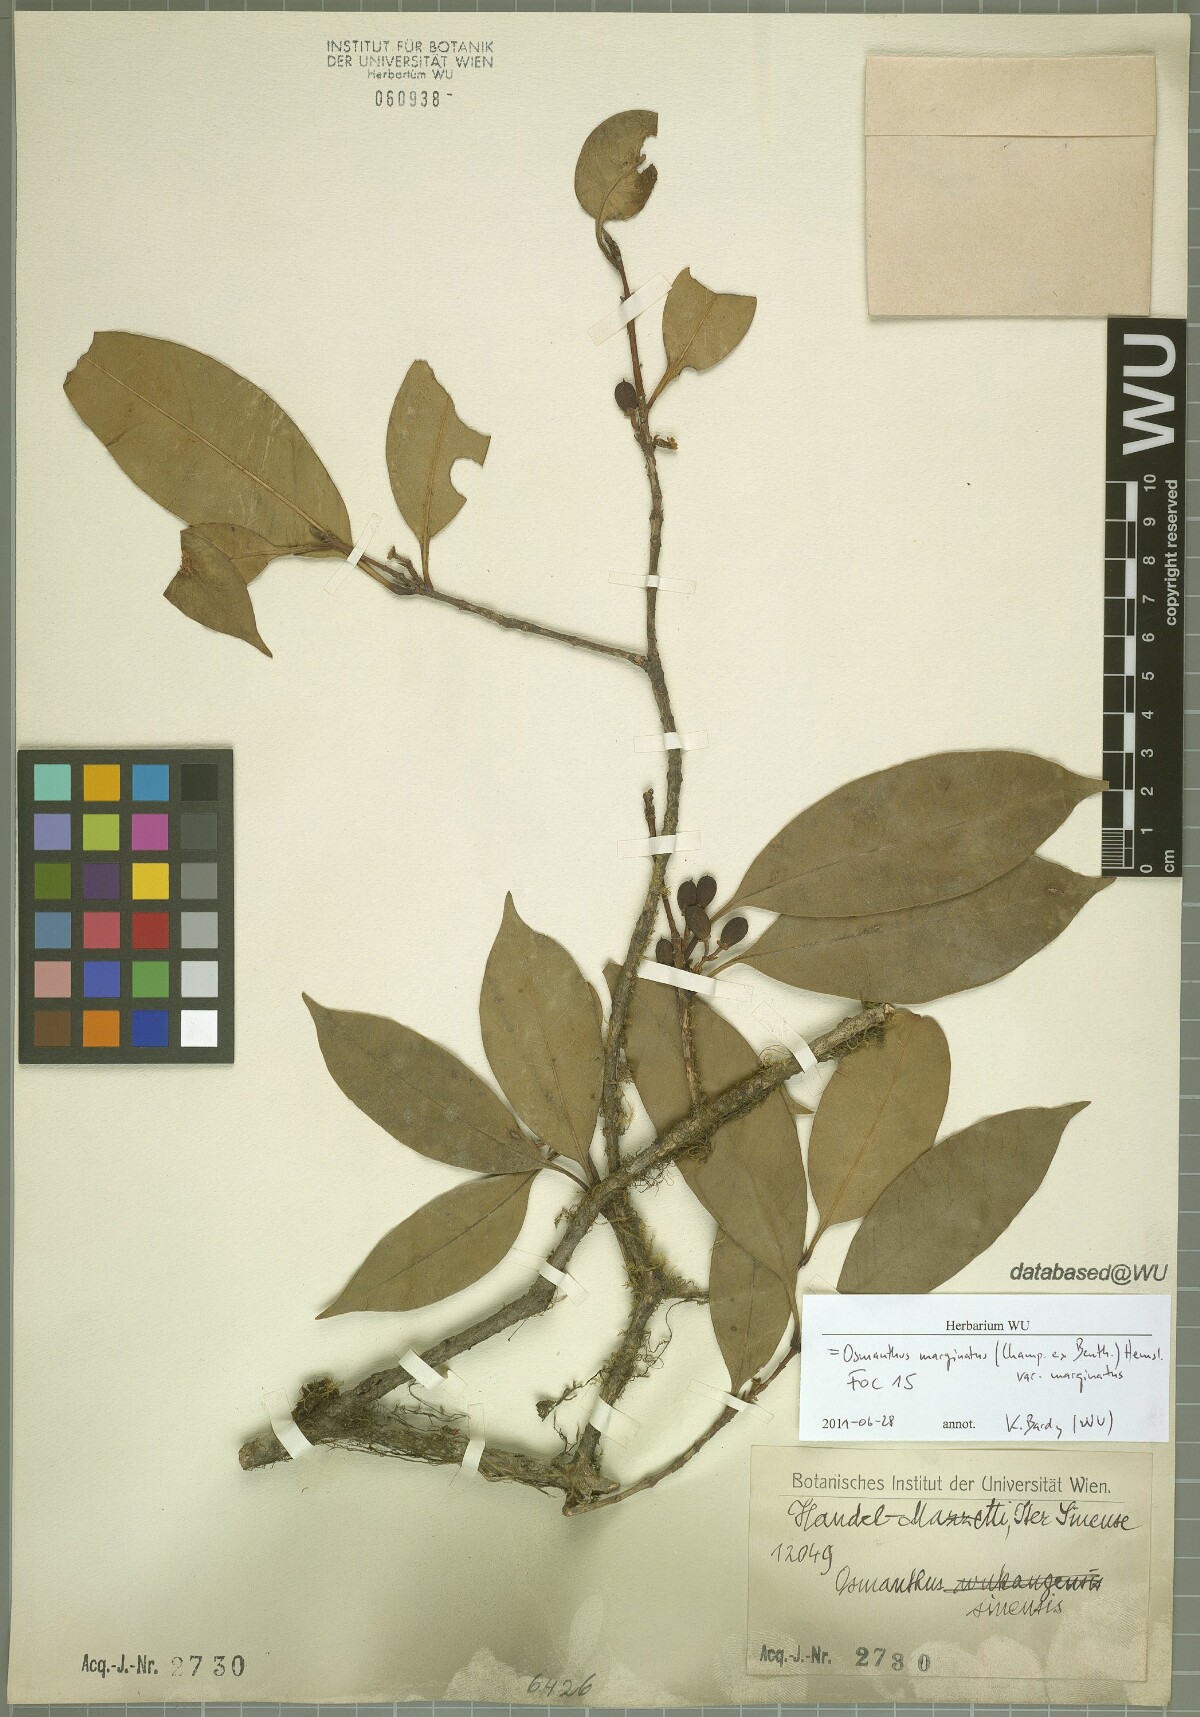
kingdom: Plantae
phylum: Tracheophyta
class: Magnoliopsida
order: Lamiales
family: Oleaceae
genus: Chengiodendron
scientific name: Chengiodendron marginatum
